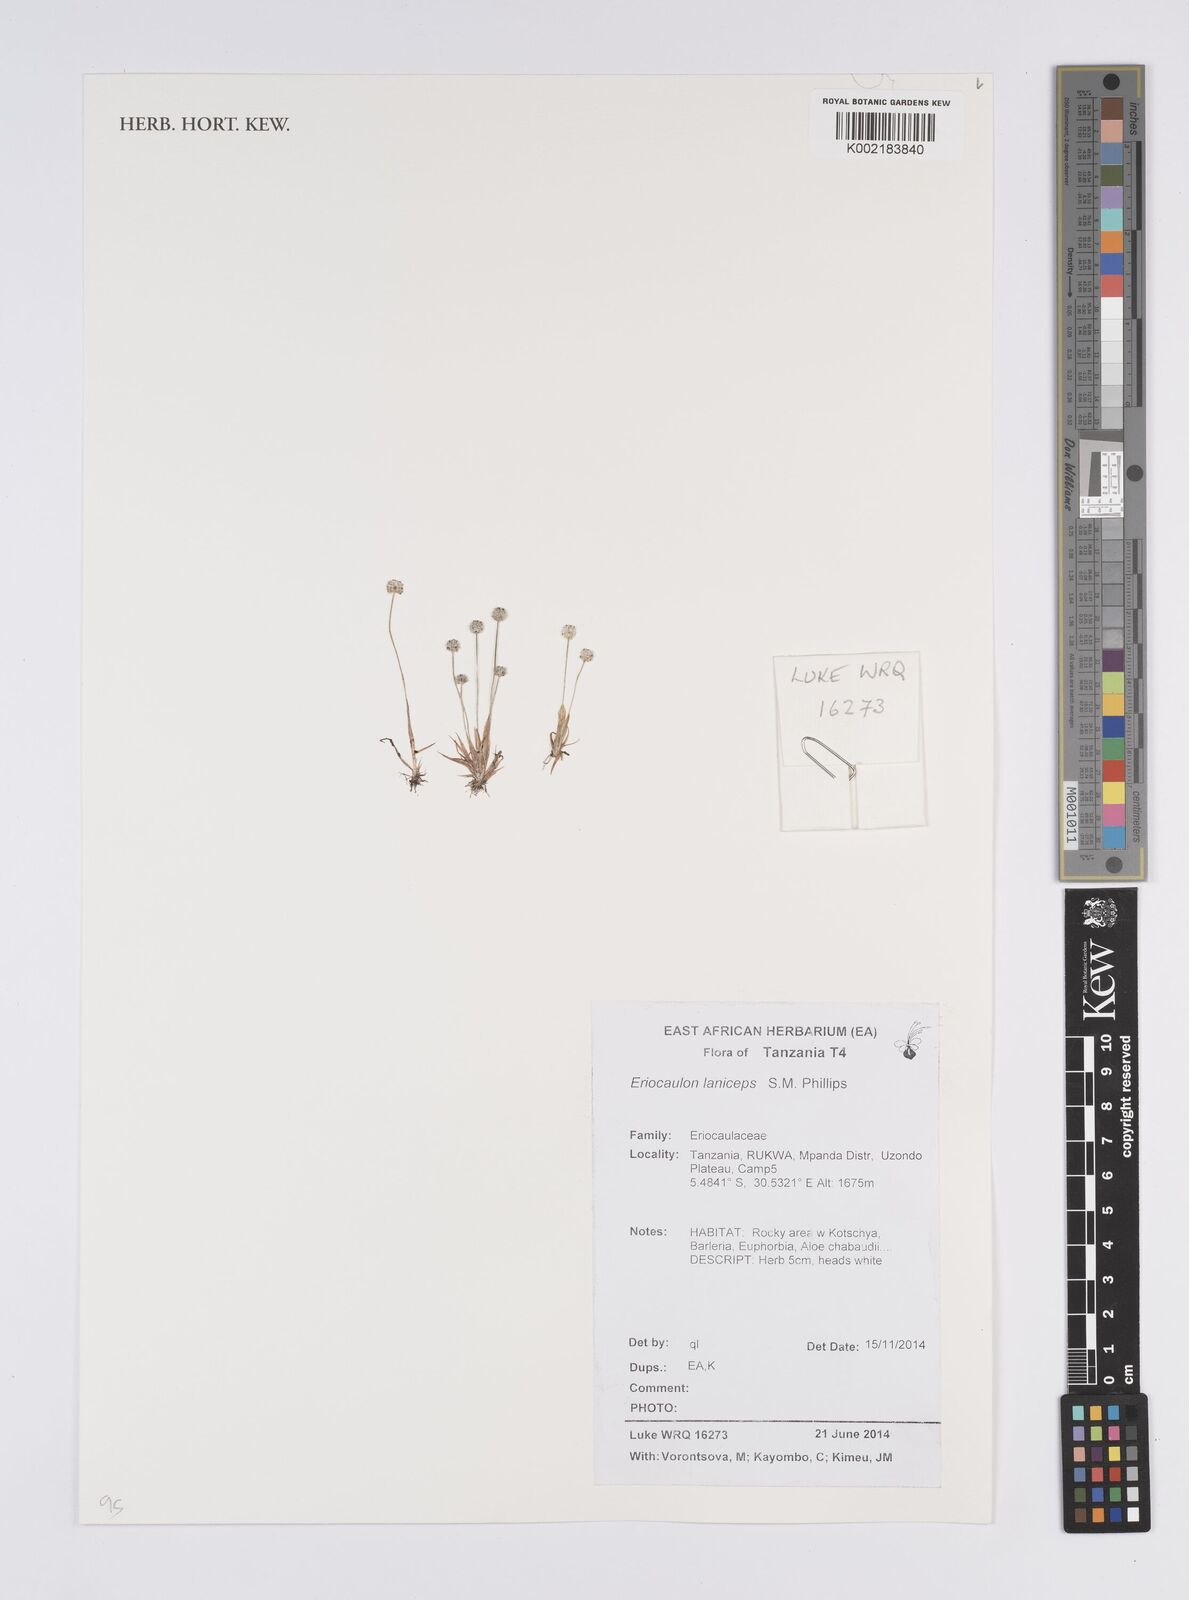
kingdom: Plantae
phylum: Tracheophyta
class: Liliopsida
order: Poales
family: Eriocaulaceae
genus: Eriocaulon
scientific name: Eriocaulon laniceps
